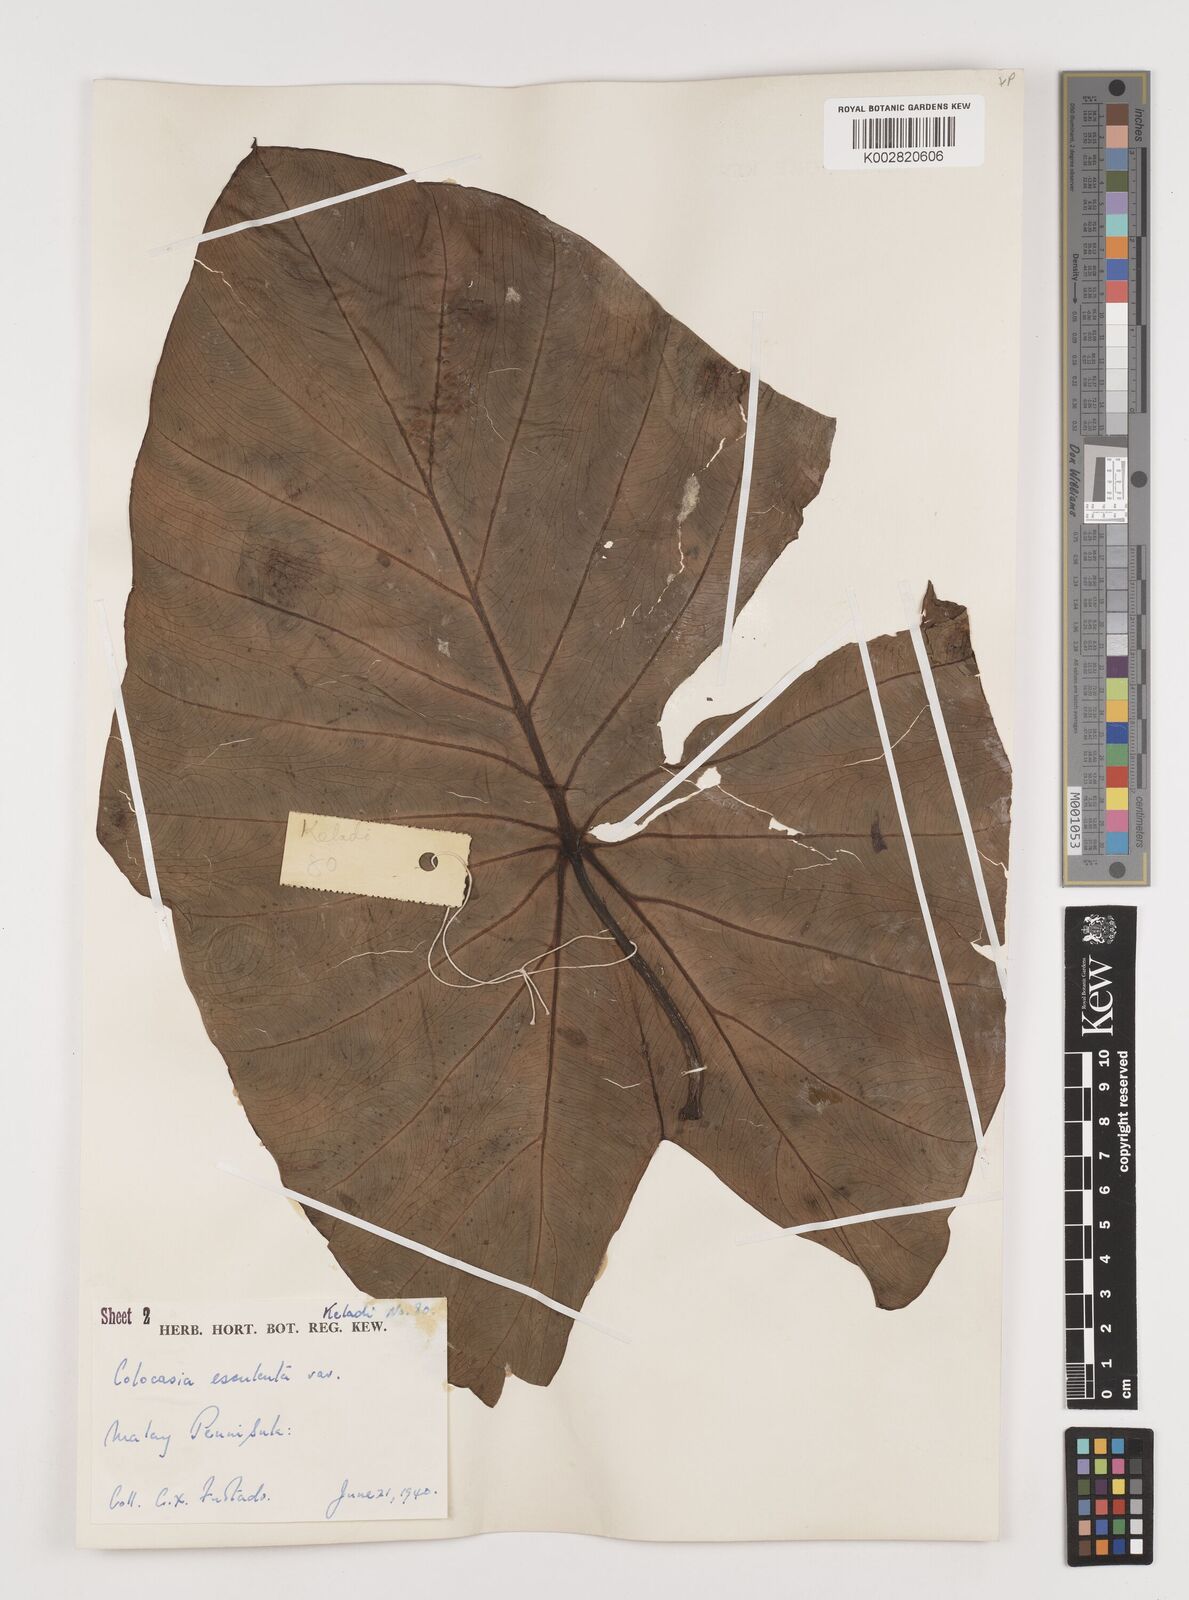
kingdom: Plantae
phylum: Tracheophyta
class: Liliopsida
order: Alismatales
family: Araceae
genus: Colocasia
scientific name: Colocasia esculenta
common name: Taro
